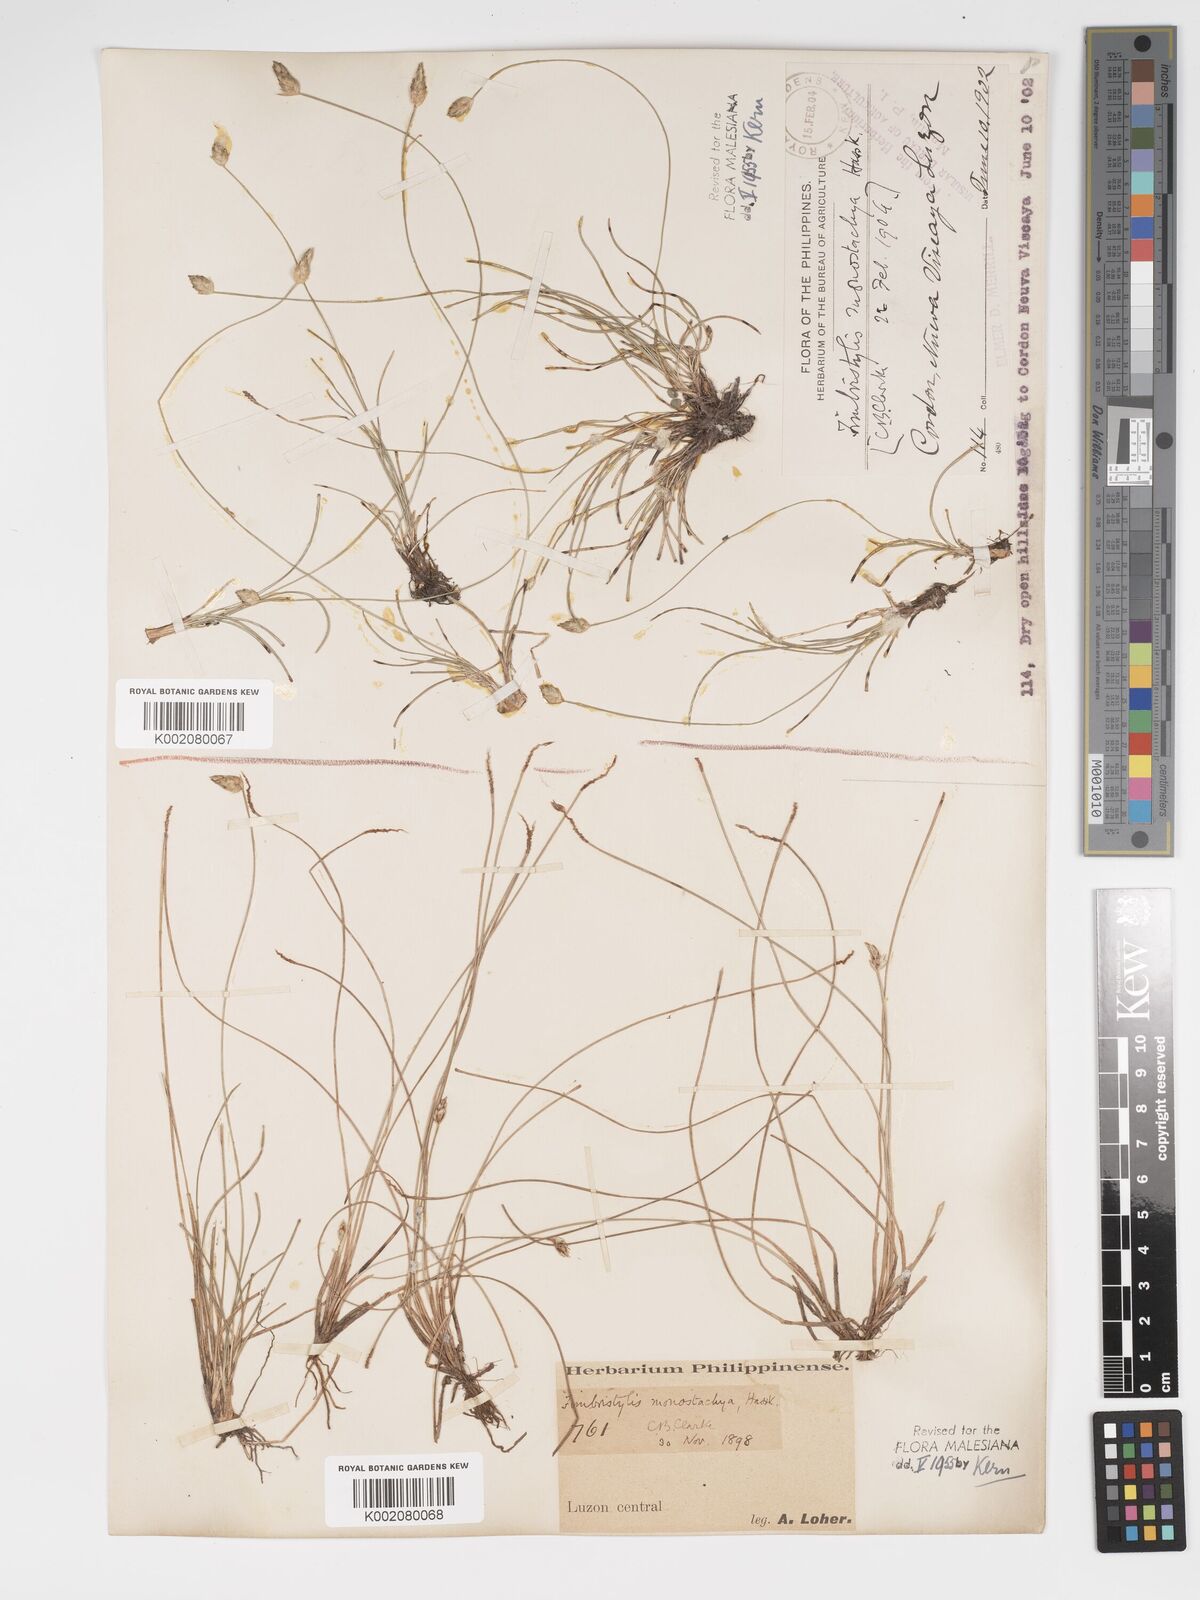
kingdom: Plantae
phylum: Tracheophyta
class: Liliopsida
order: Poales
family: Cyperaceae
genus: Abildgaardia
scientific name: Abildgaardia ovata
